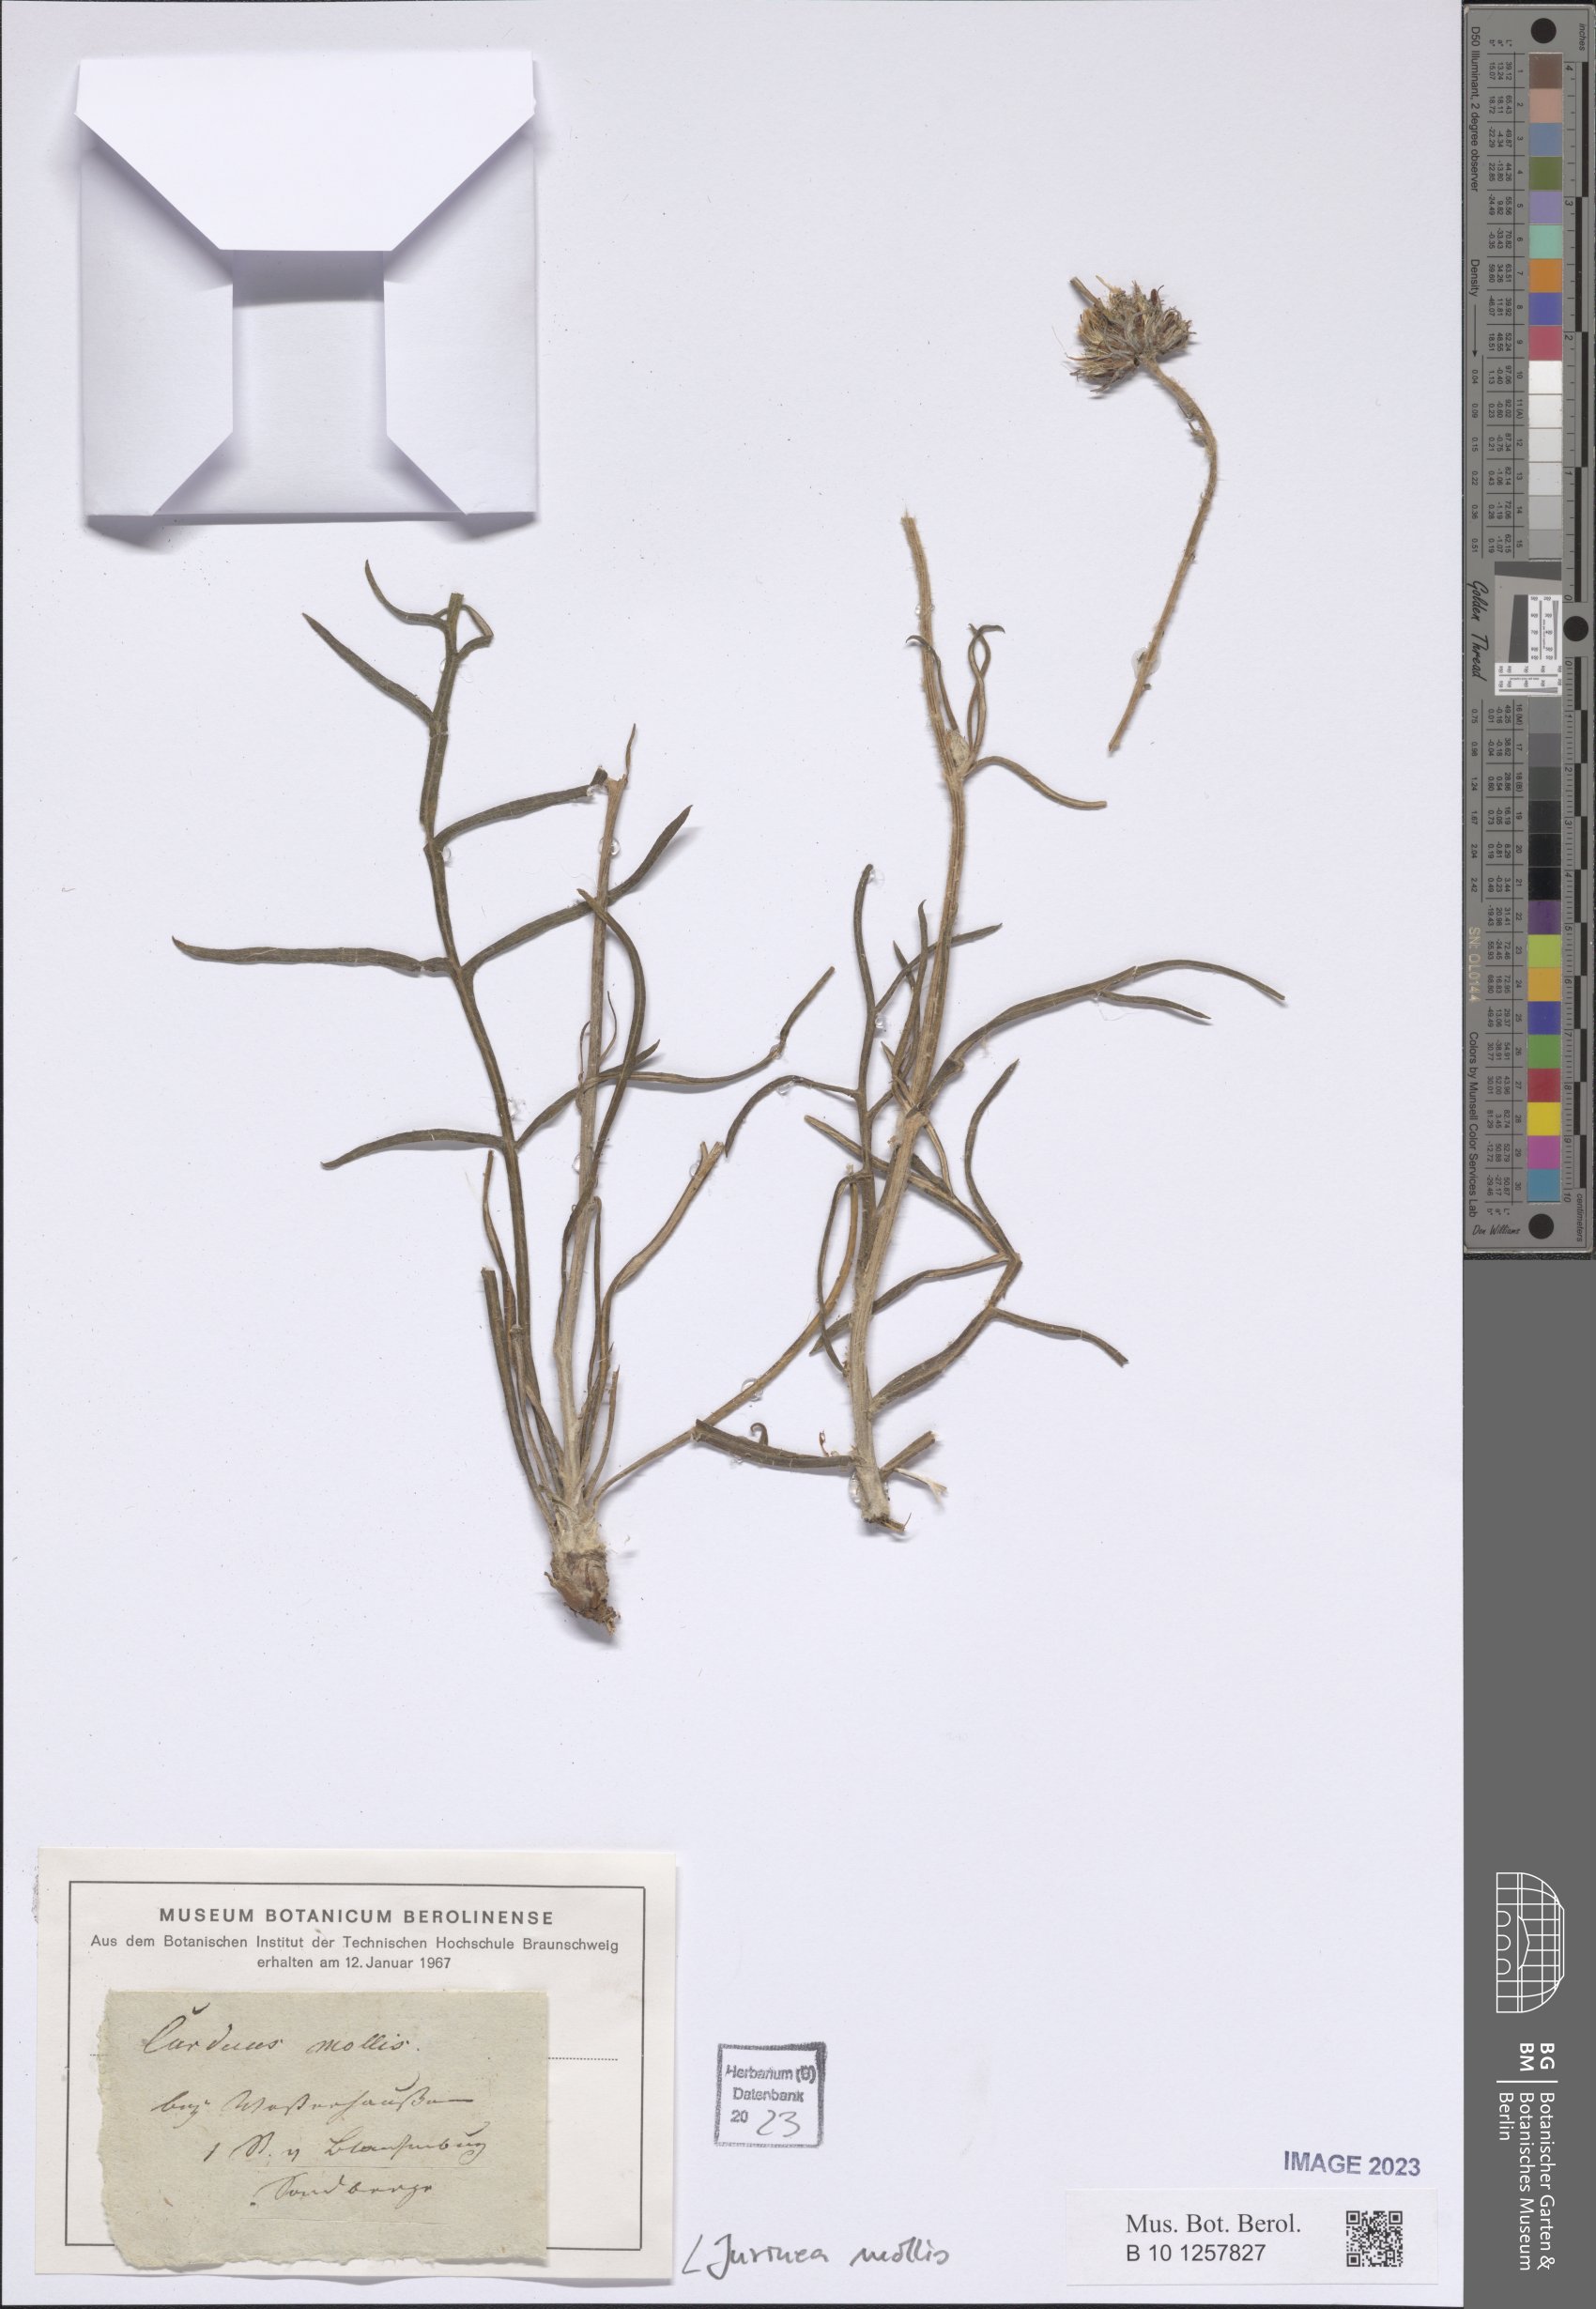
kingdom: Plantae
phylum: Tracheophyta
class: Magnoliopsida
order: Asterales
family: Asteraceae
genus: Jurinea
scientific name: Jurinea mollis
